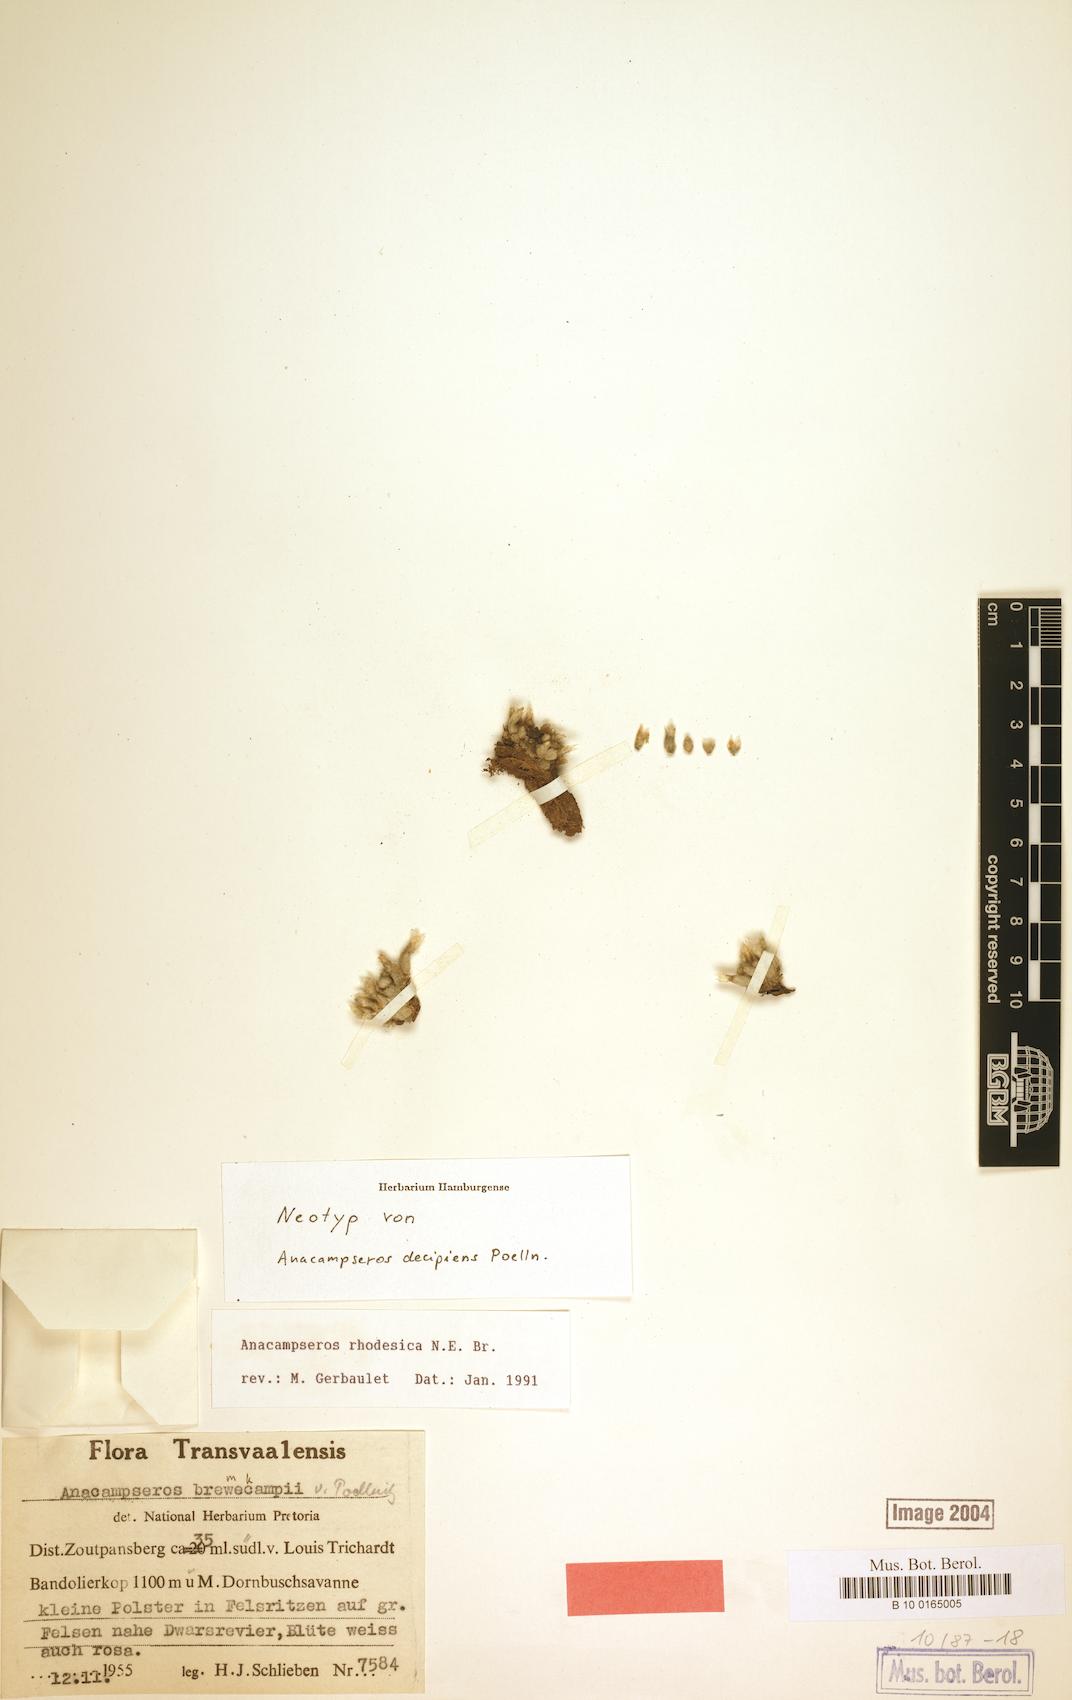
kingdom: Plantae
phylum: Tracheophyta
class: Magnoliopsida
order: Caryophyllales
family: Anacampserotaceae
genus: Avonia
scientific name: Avonia rhodesica
